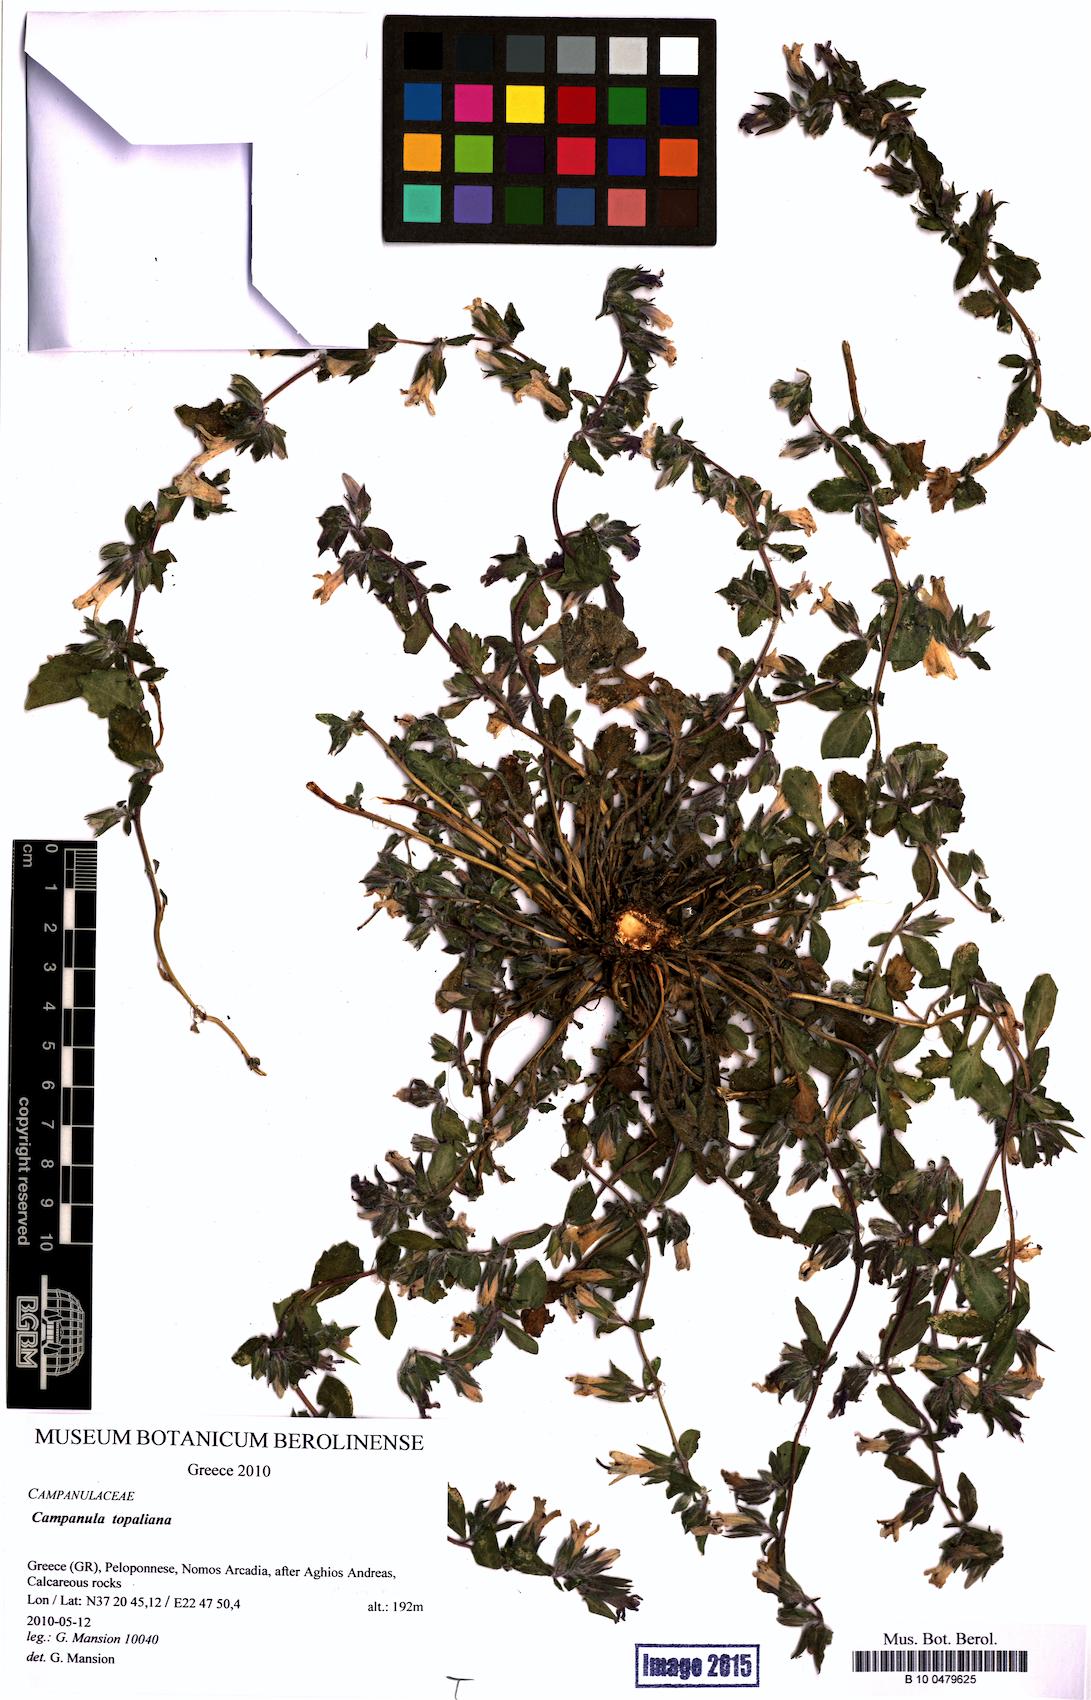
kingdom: Plantae
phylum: Tracheophyta
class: Magnoliopsida
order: Asterales
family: Campanulaceae
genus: Campanula
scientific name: Campanula topaliana
